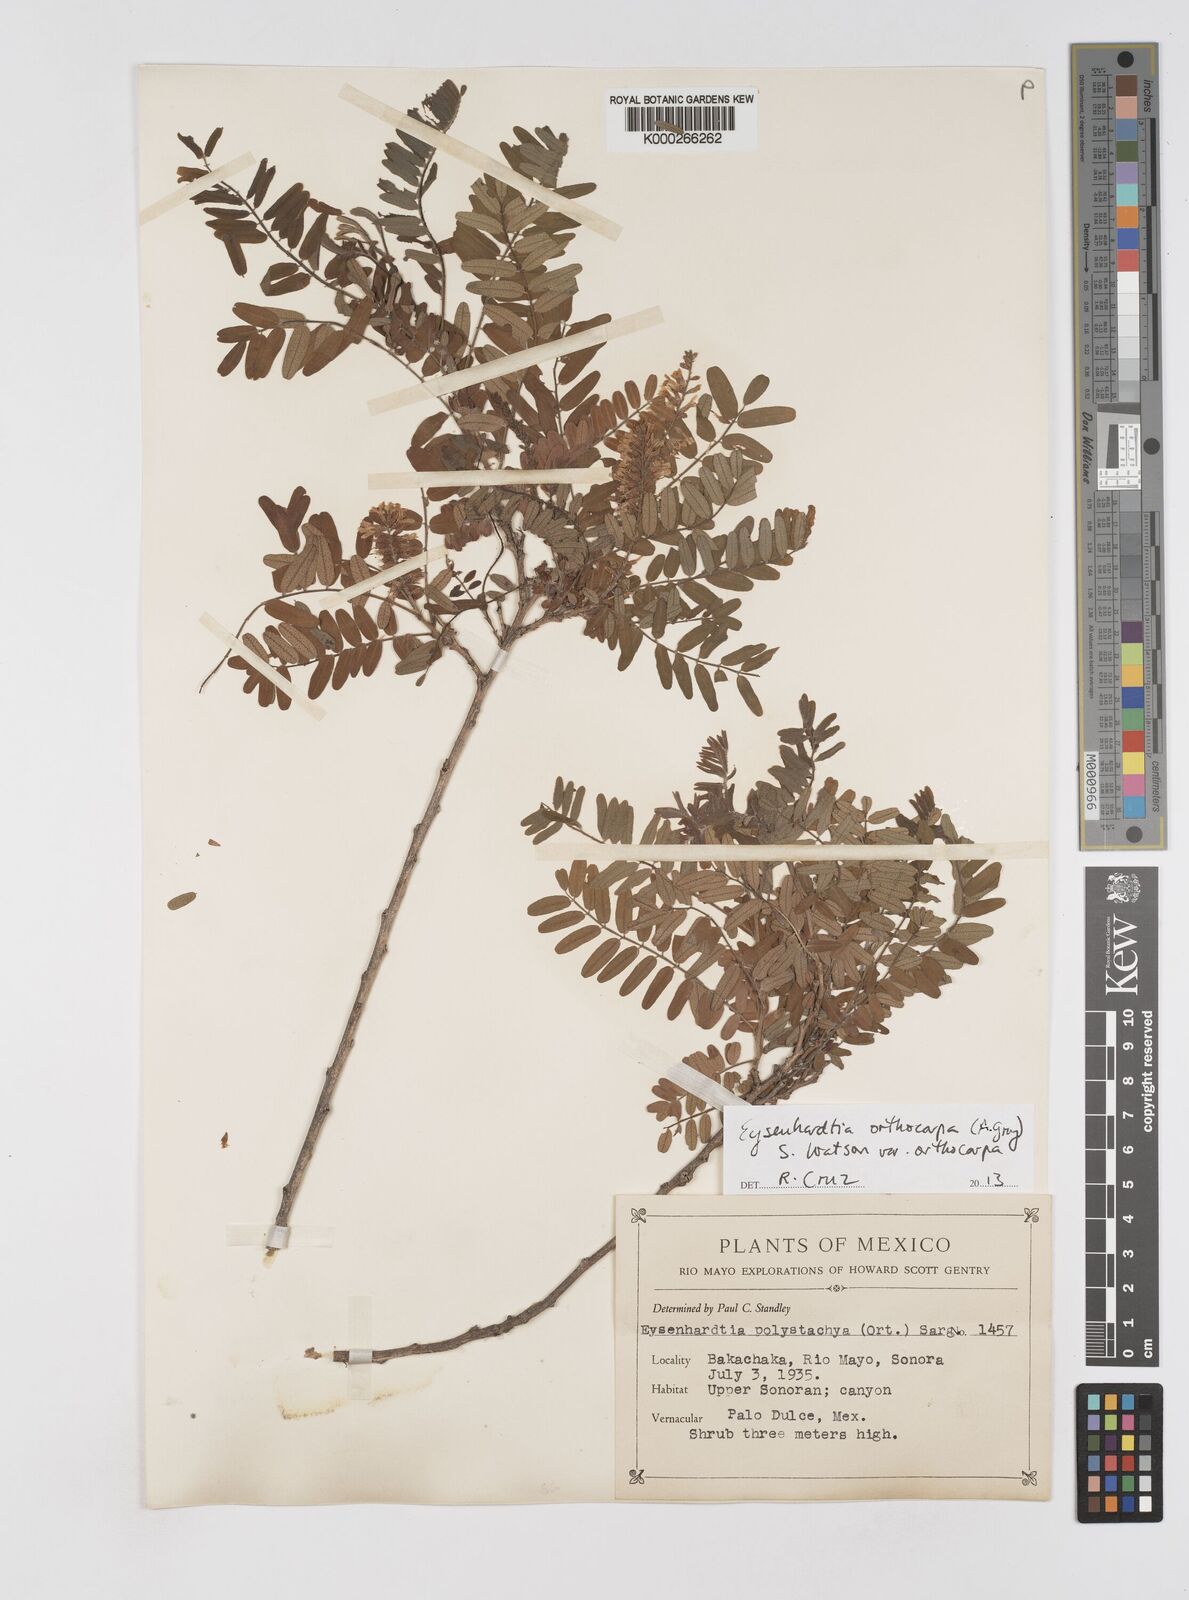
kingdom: Plantae
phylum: Tracheophyta
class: Magnoliopsida
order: Fabales
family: Fabaceae
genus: Eysenhardtia
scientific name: Eysenhardtia orthocarpa
